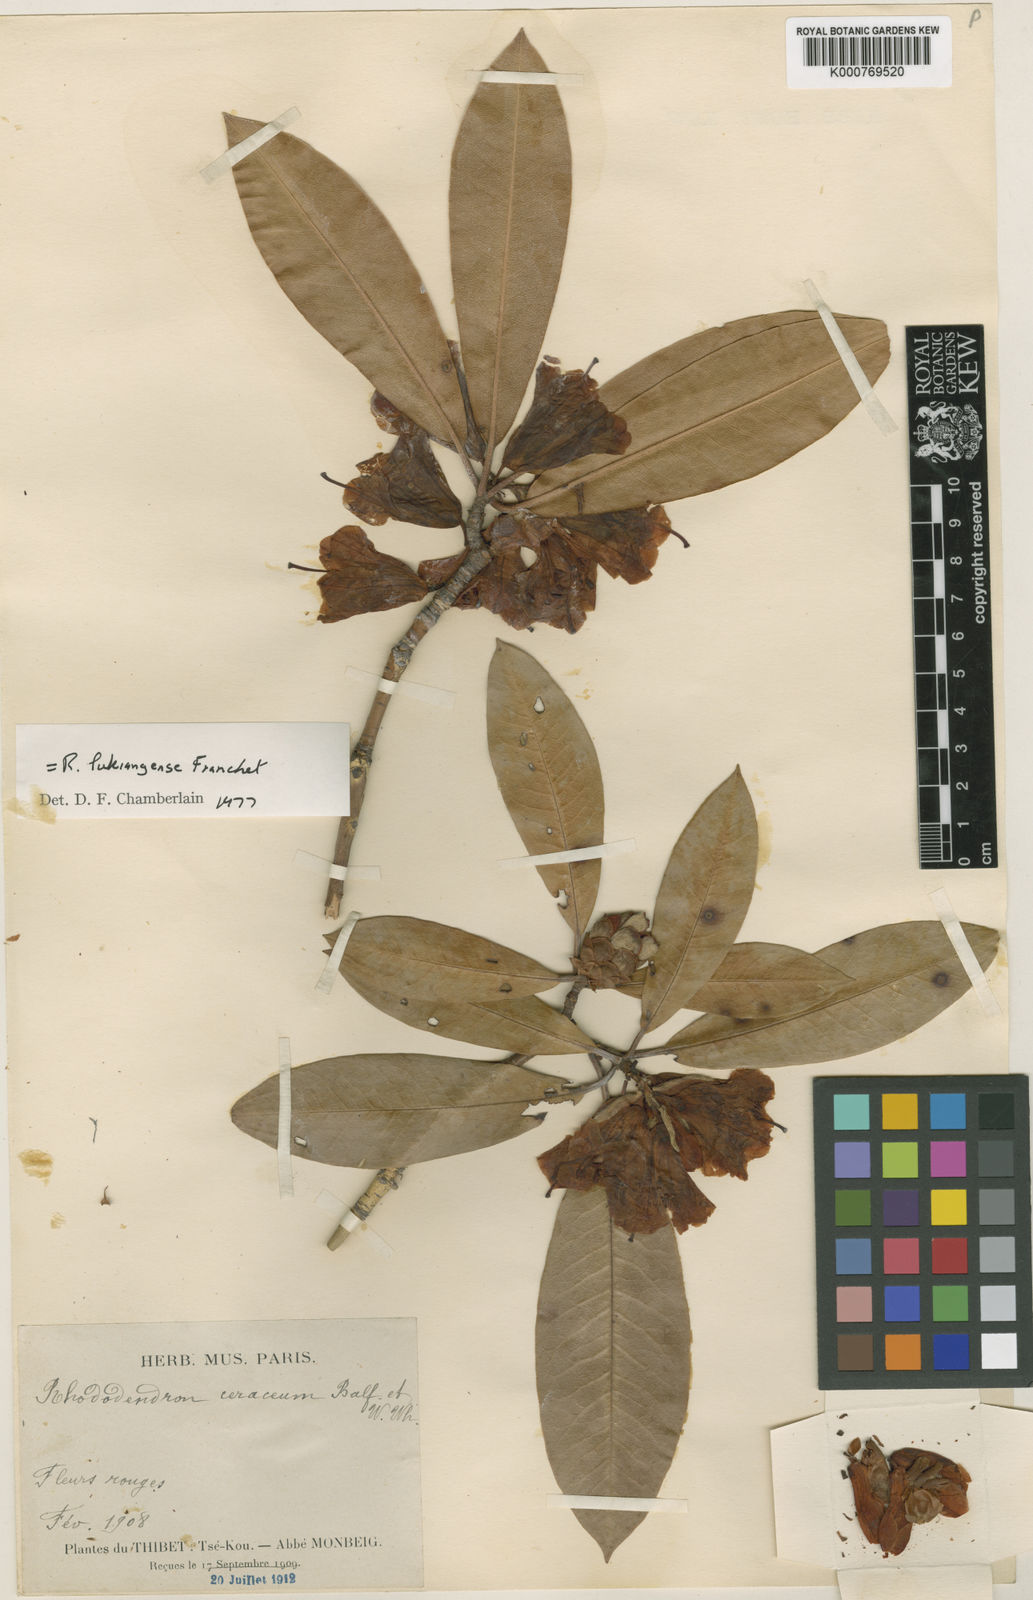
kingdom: Plantae
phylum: Tracheophyta
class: Magnoliopsida
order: Ericales
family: Ericaceae
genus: Rhododendron
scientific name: Rhododendron lukiangense
